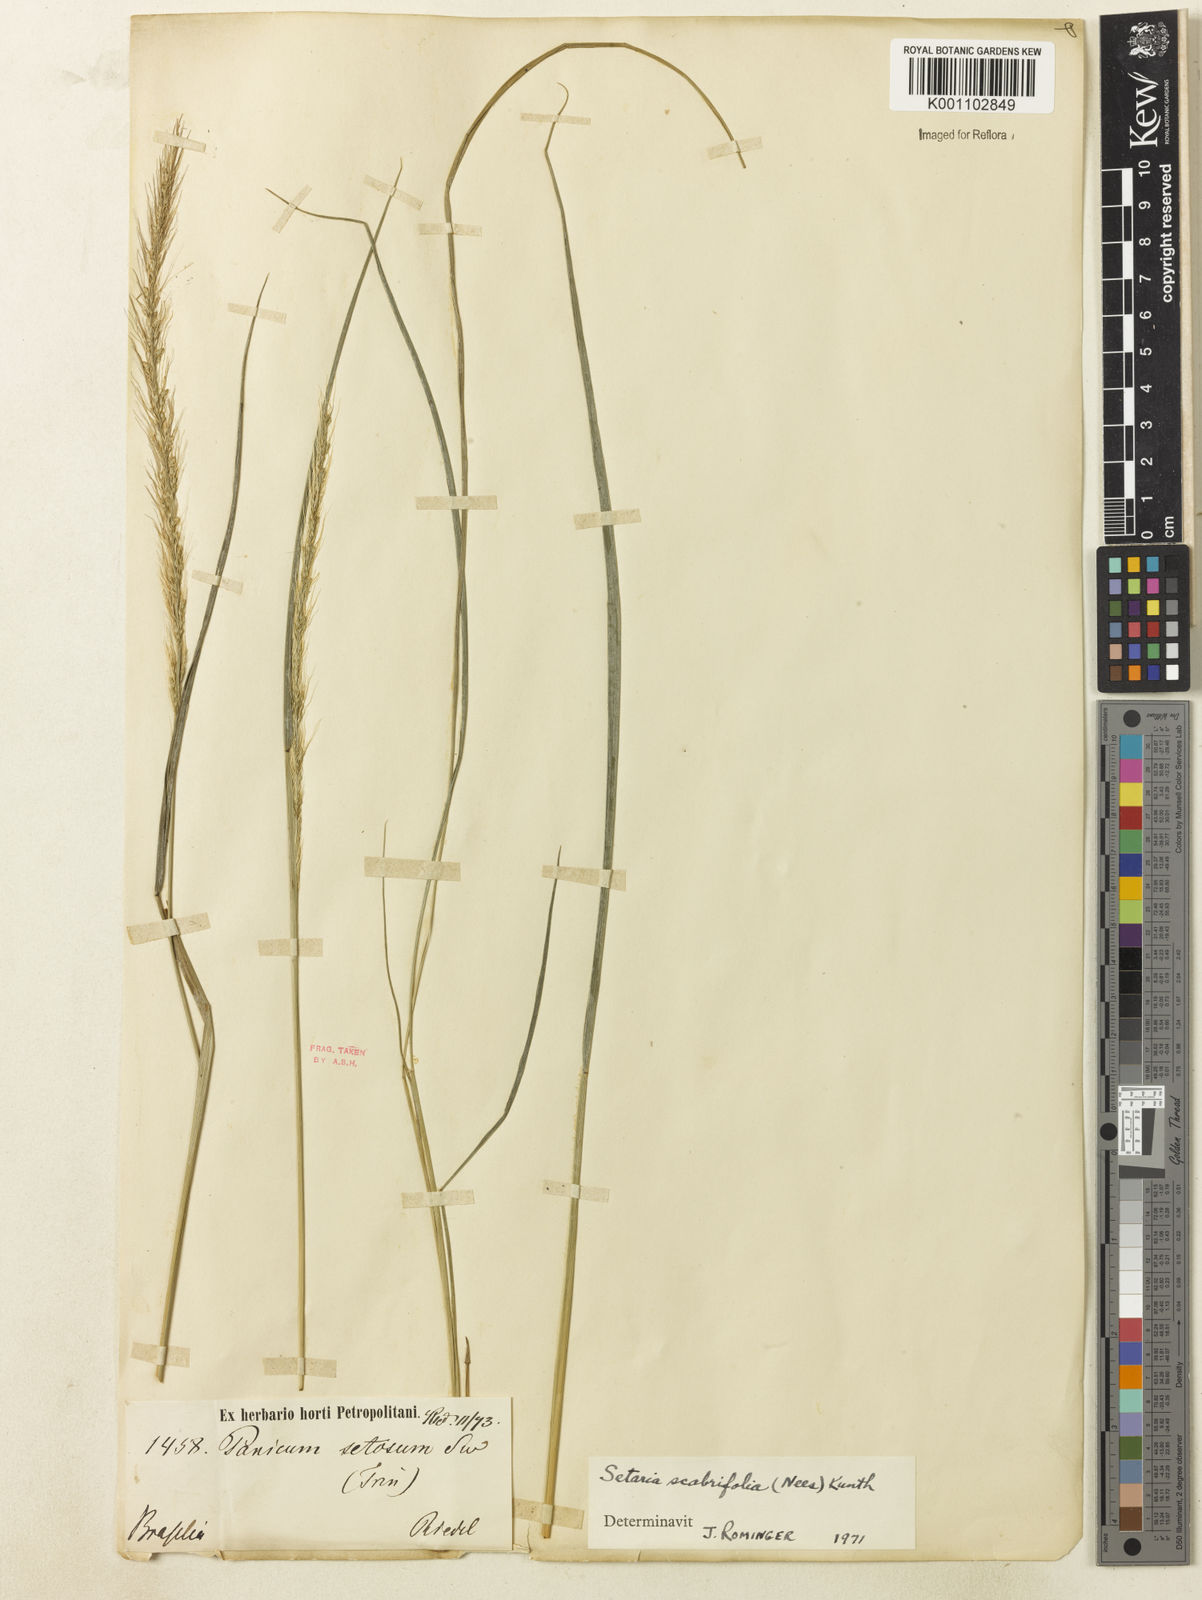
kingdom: Plantae
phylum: Tracheophyta
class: Liliopsida
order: Poales
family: Poaceae
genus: Setaria
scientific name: Setaria scabrifolia
